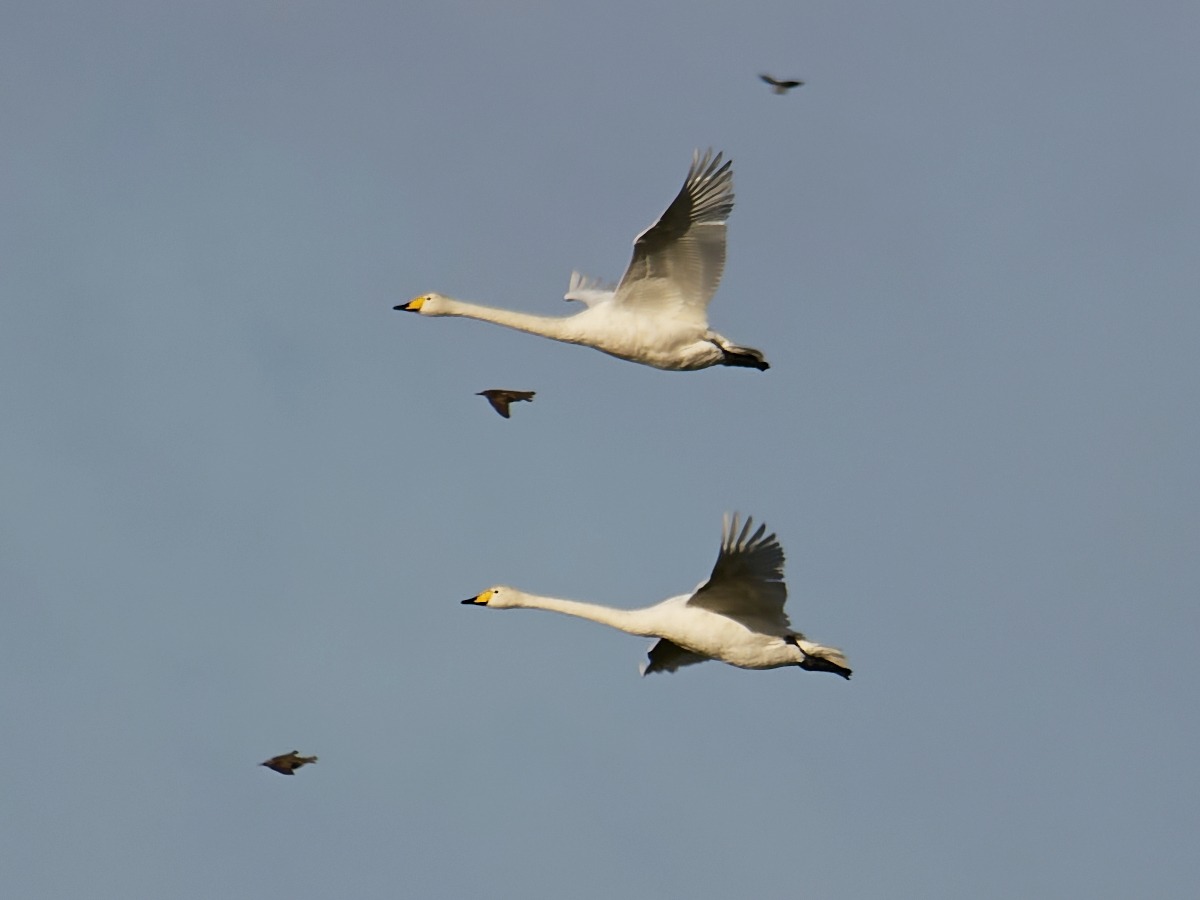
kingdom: Animalia
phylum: Chordata
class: Aves
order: Anseriformes
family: Anatidae
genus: Cygnus
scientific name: Cygnus cygnus
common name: Sangsvane
